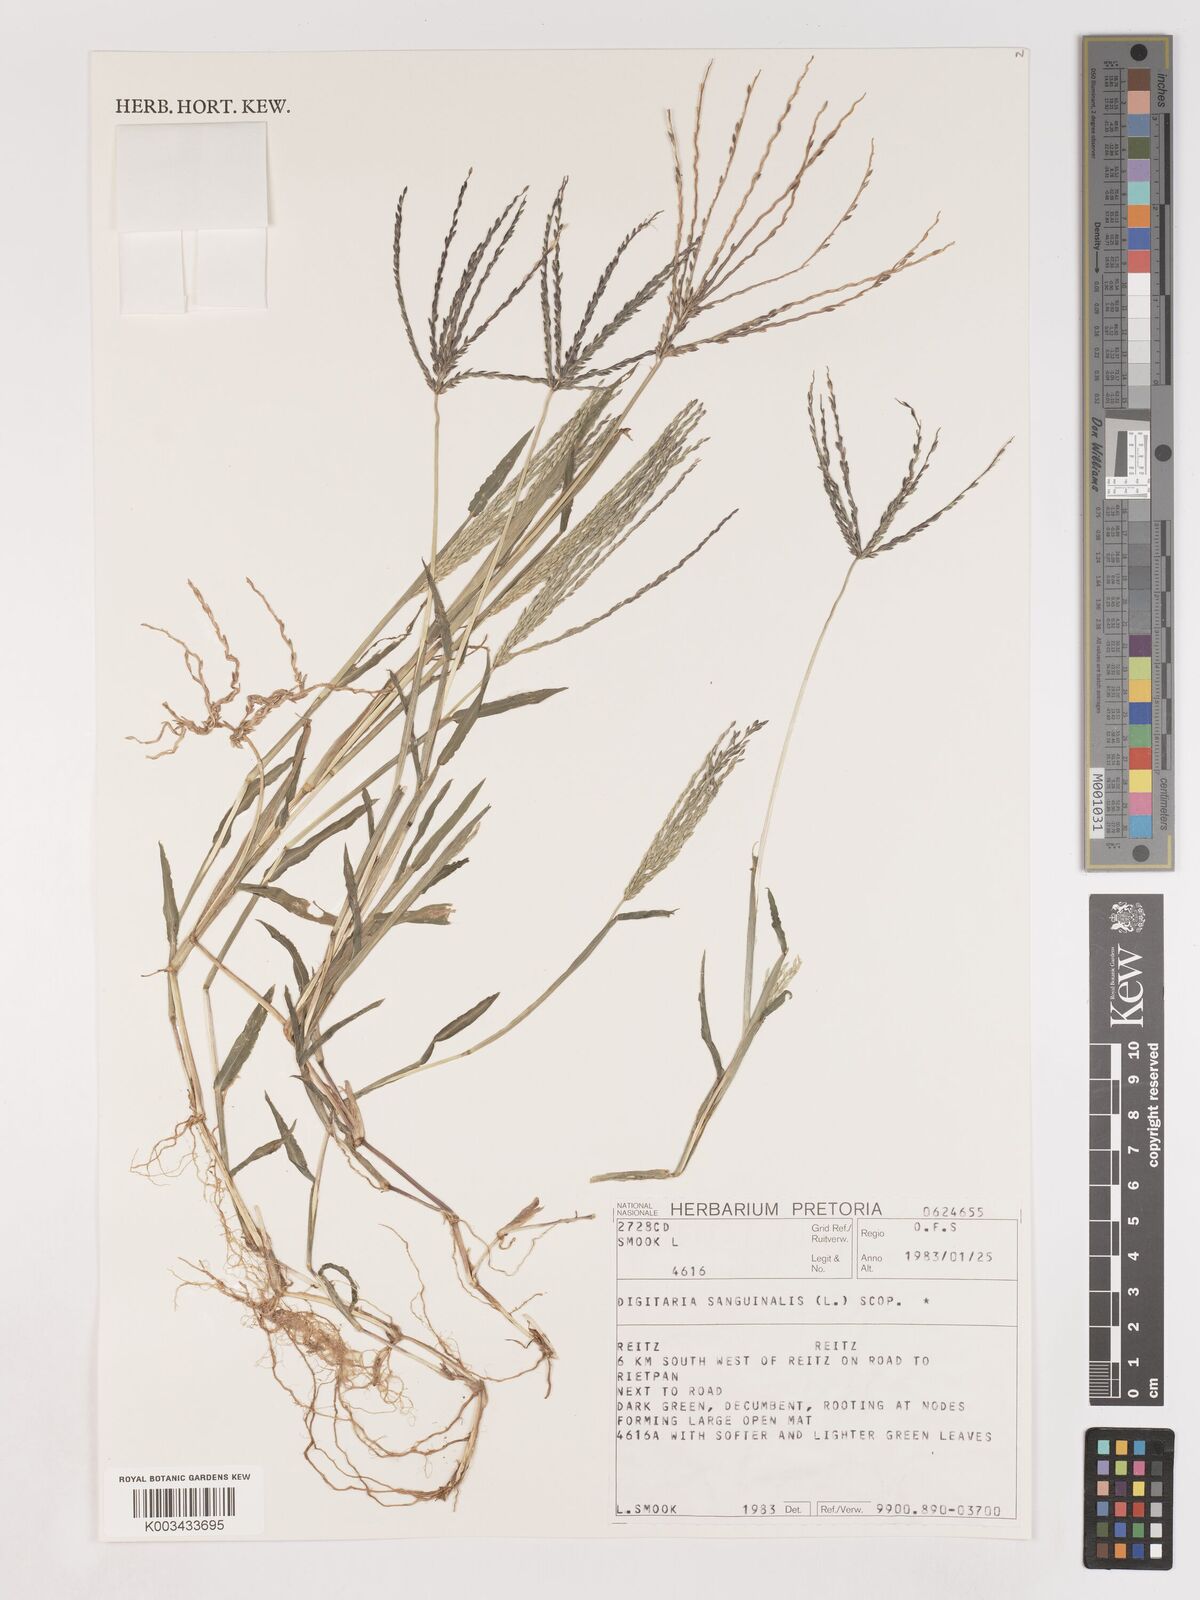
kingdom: Plantae
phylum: Tracheophyta
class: Liliopsida
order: Poales
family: Poaceae
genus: Digitaria
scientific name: Digitaria sanguinalis
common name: Hairy crabgrass
